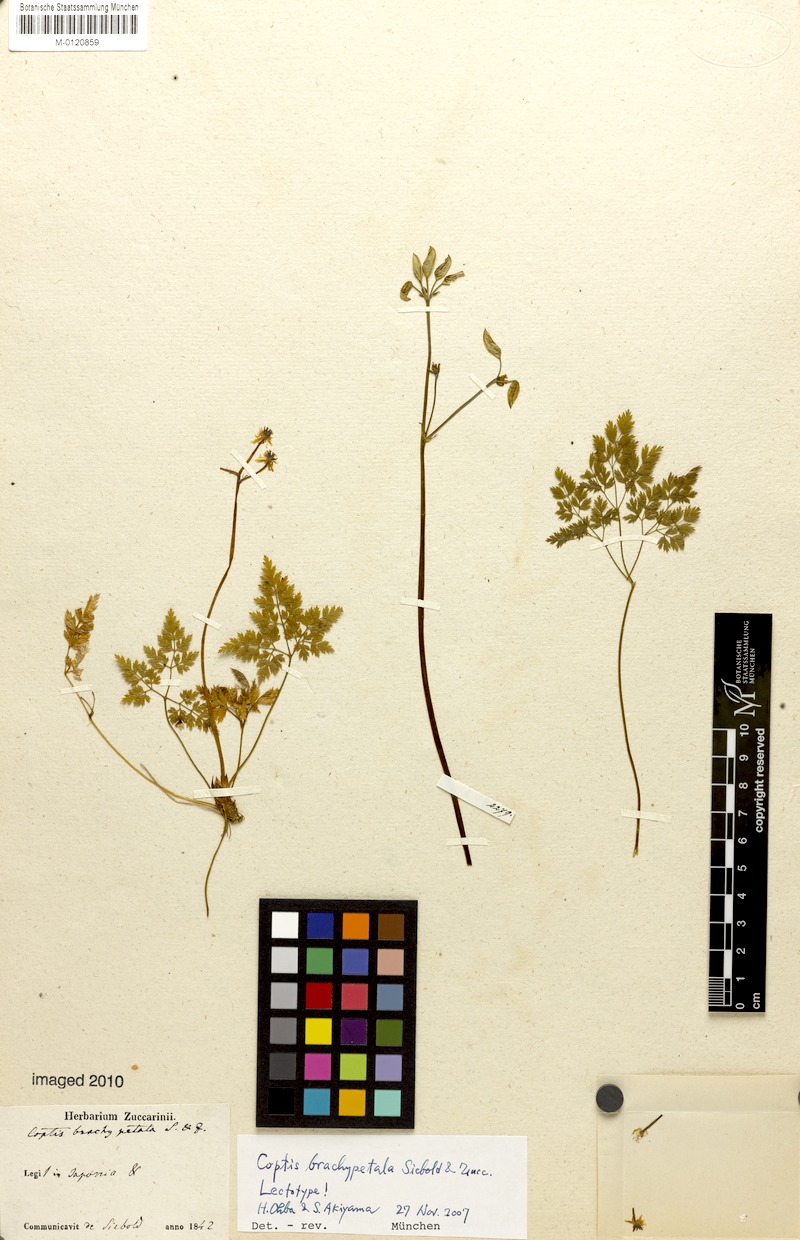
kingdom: Plantae
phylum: Tracheophyta
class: Magnoliopsida
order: Ranunculales
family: Ranunculaceae
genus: Coptis
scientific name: Coptis japonica
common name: Japanese goldthread
